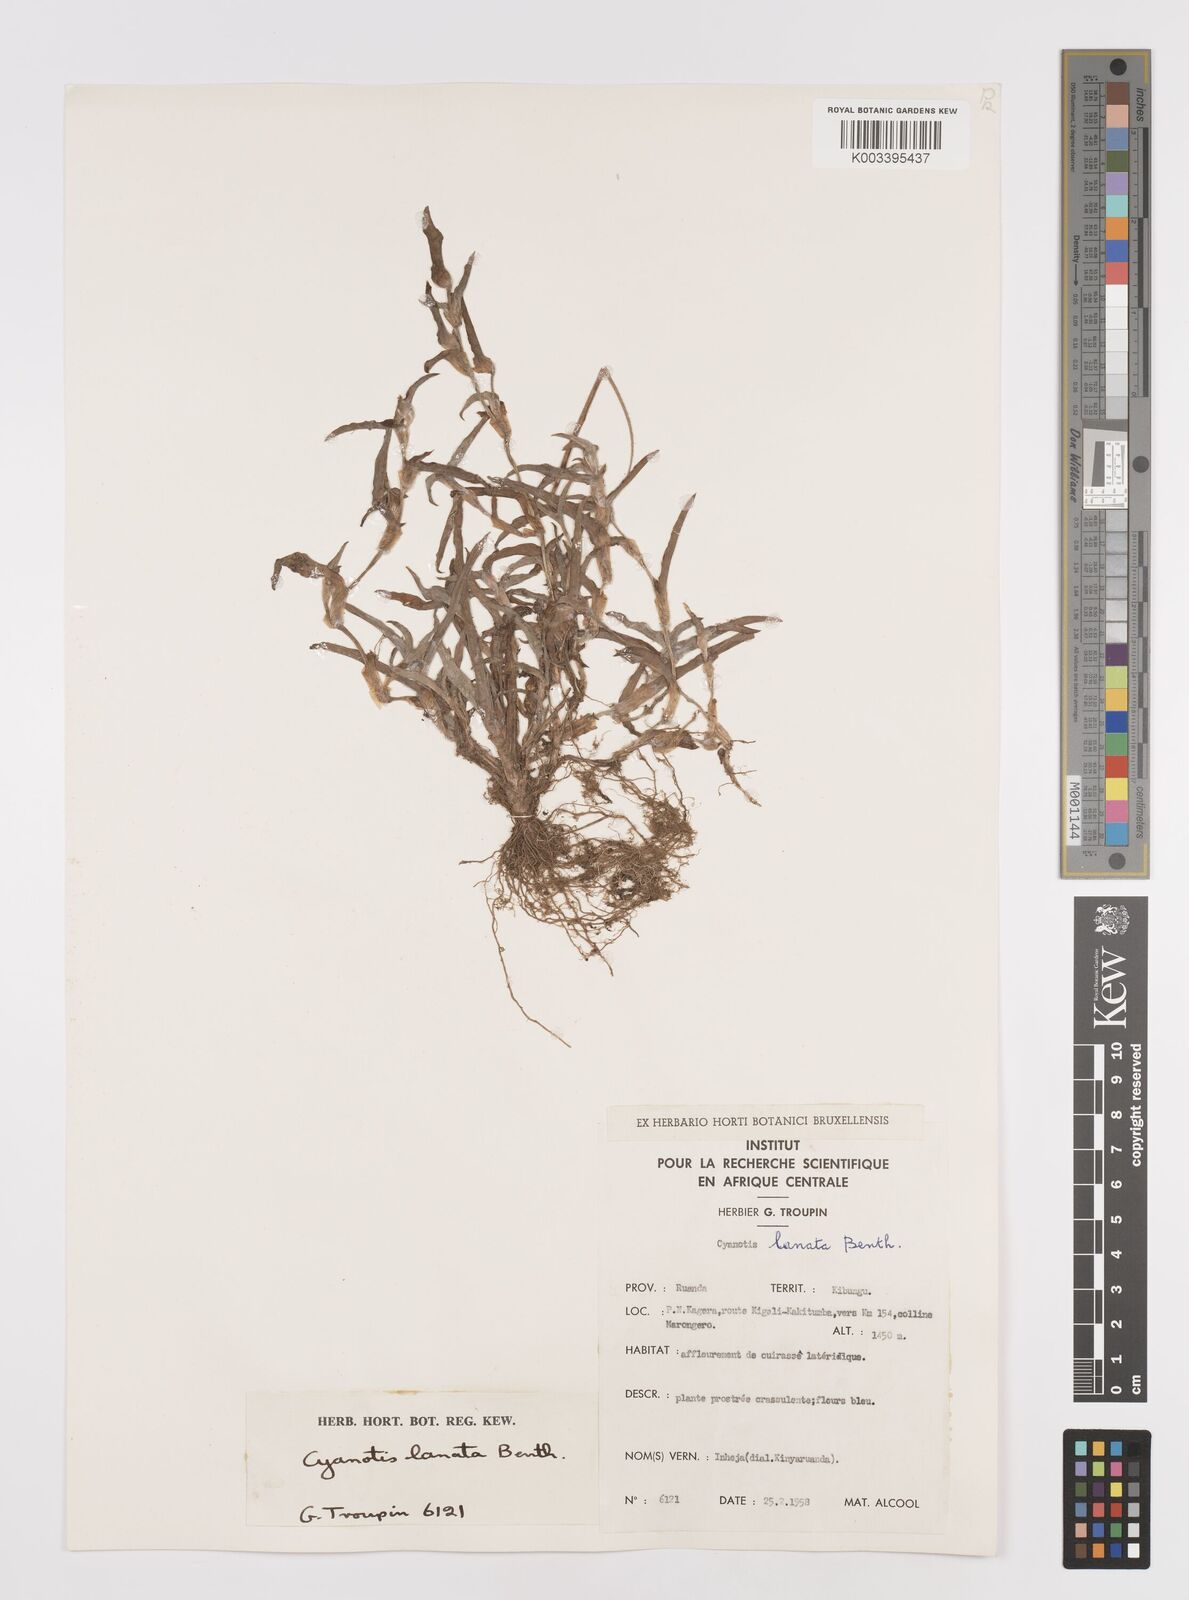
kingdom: Plantae
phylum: Tracheophyta
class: Liliopsida
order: Commelinales
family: Commelinaceae
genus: Cyanotis
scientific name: Cyanotis lanata
